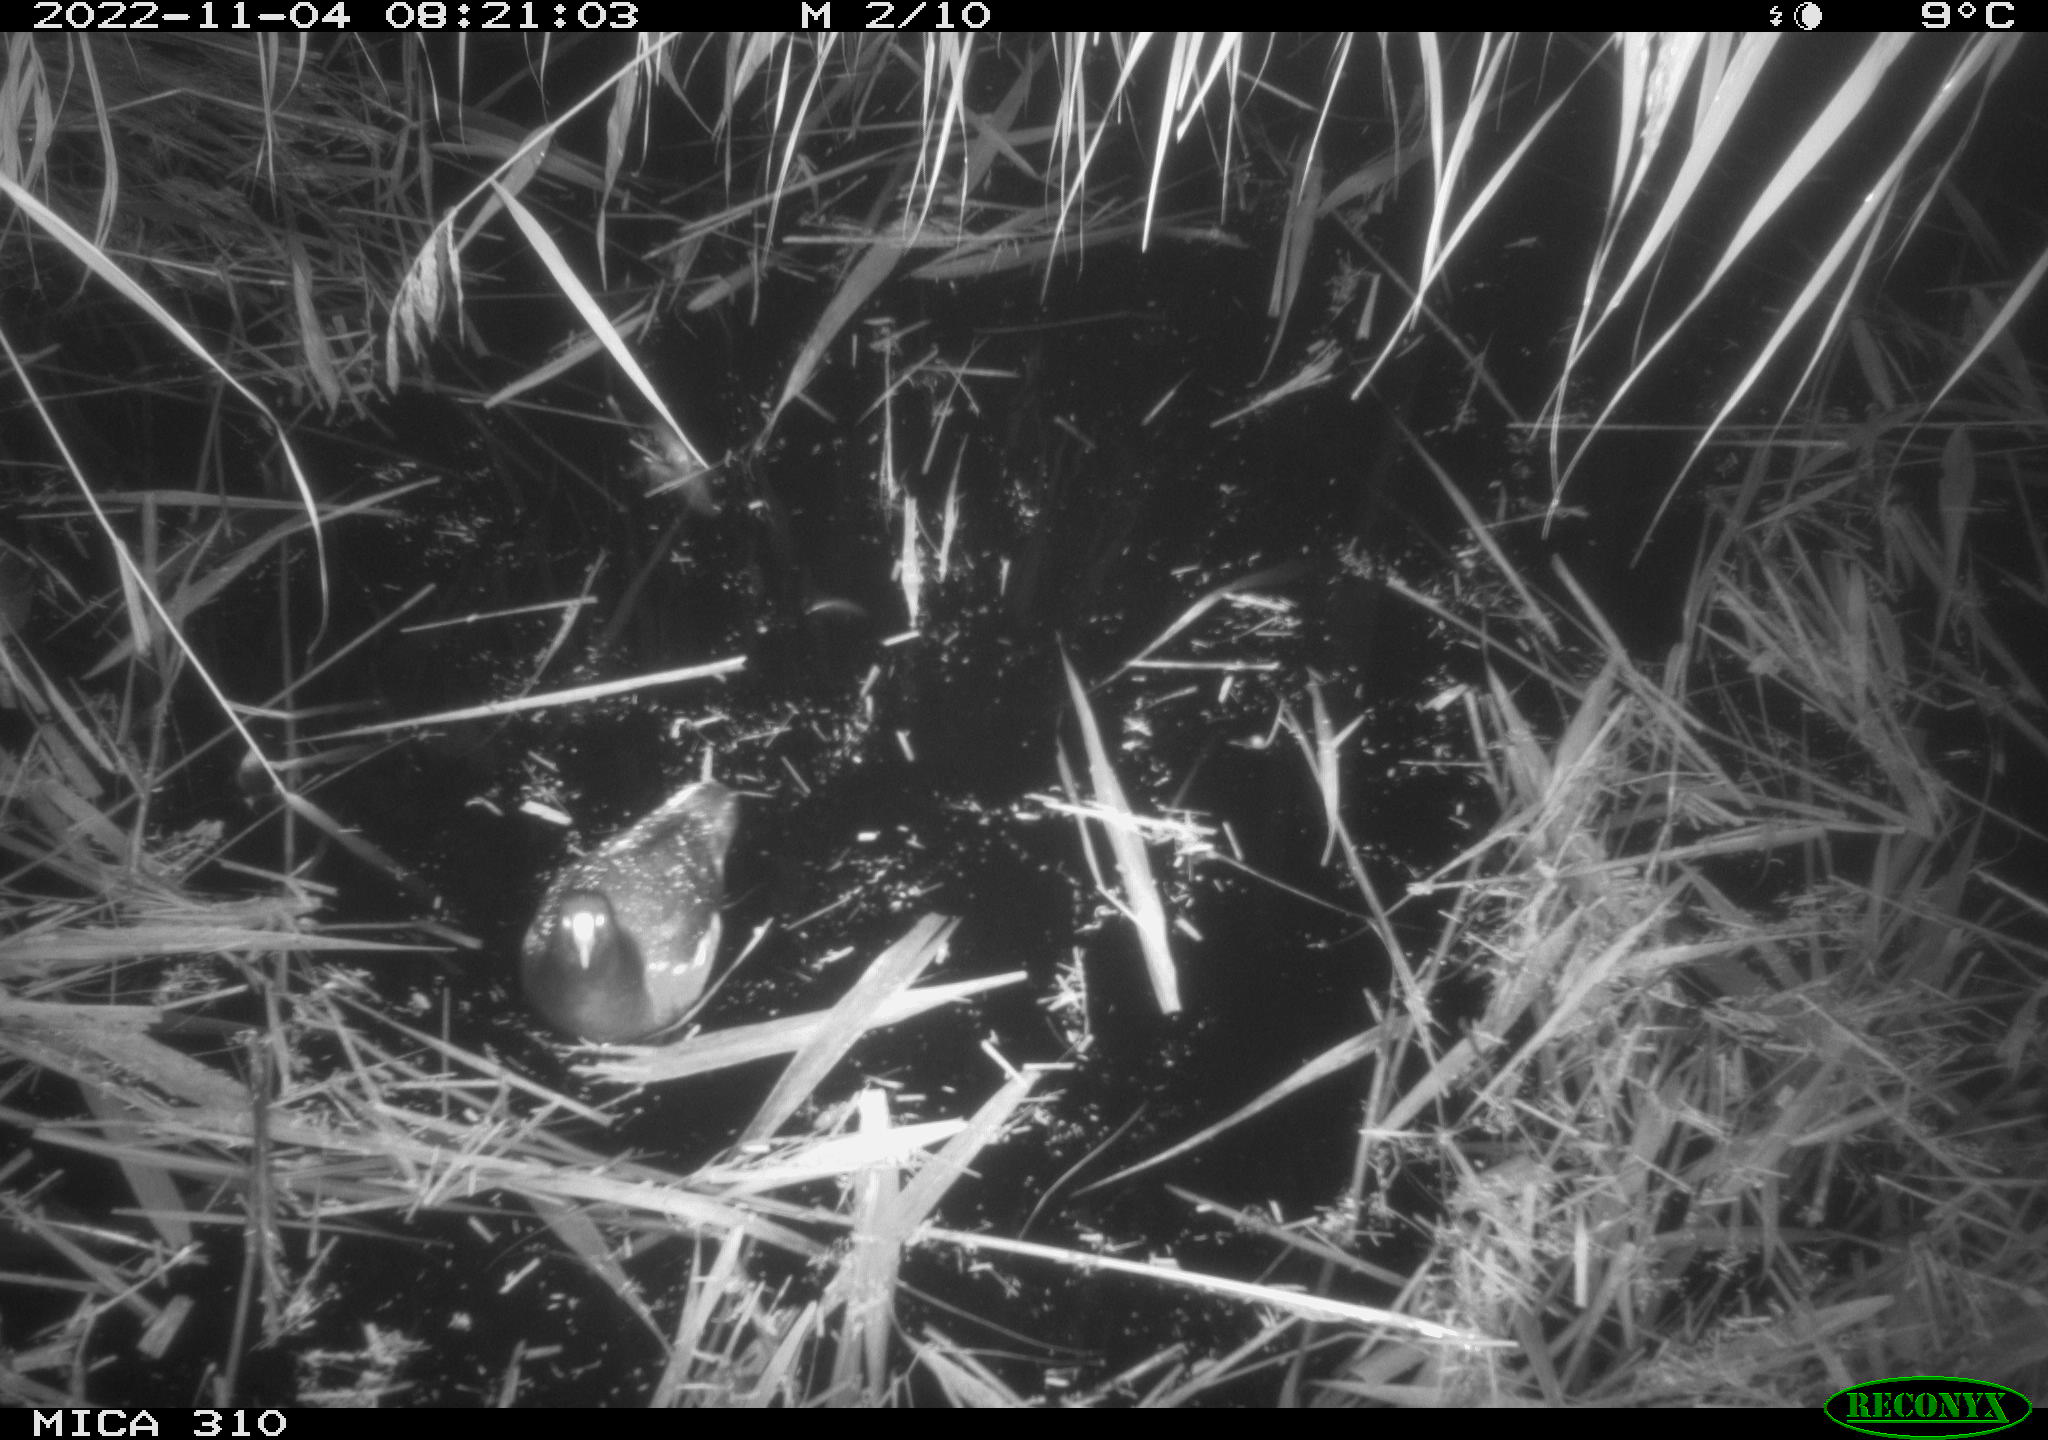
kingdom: Animalia
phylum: Chordata
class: Aves
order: Gruiformes
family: Rallidae
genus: Gallinula
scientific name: Gallinula chloropus
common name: Common moorhen
